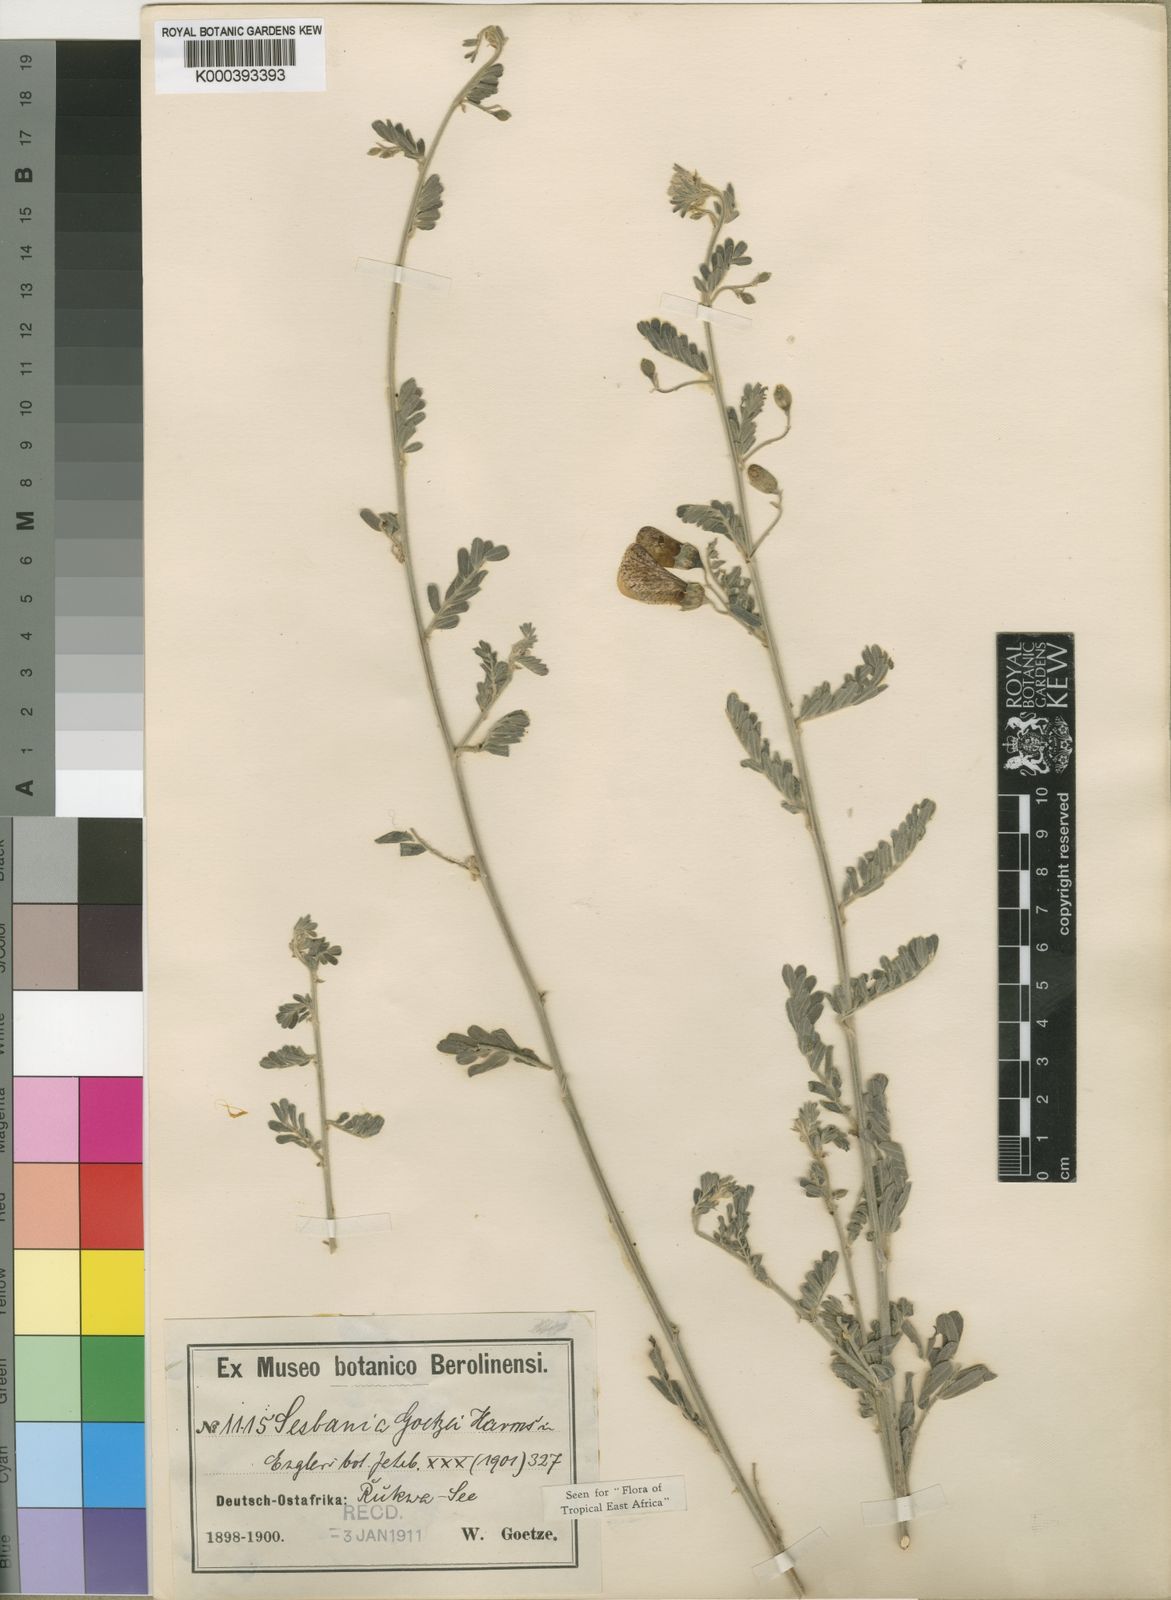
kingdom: Plantae
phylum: Tracheophyta
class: Magnoliopsida
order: Fabales
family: Fabaceae
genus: Sesbania
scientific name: Sesbania goetzei
